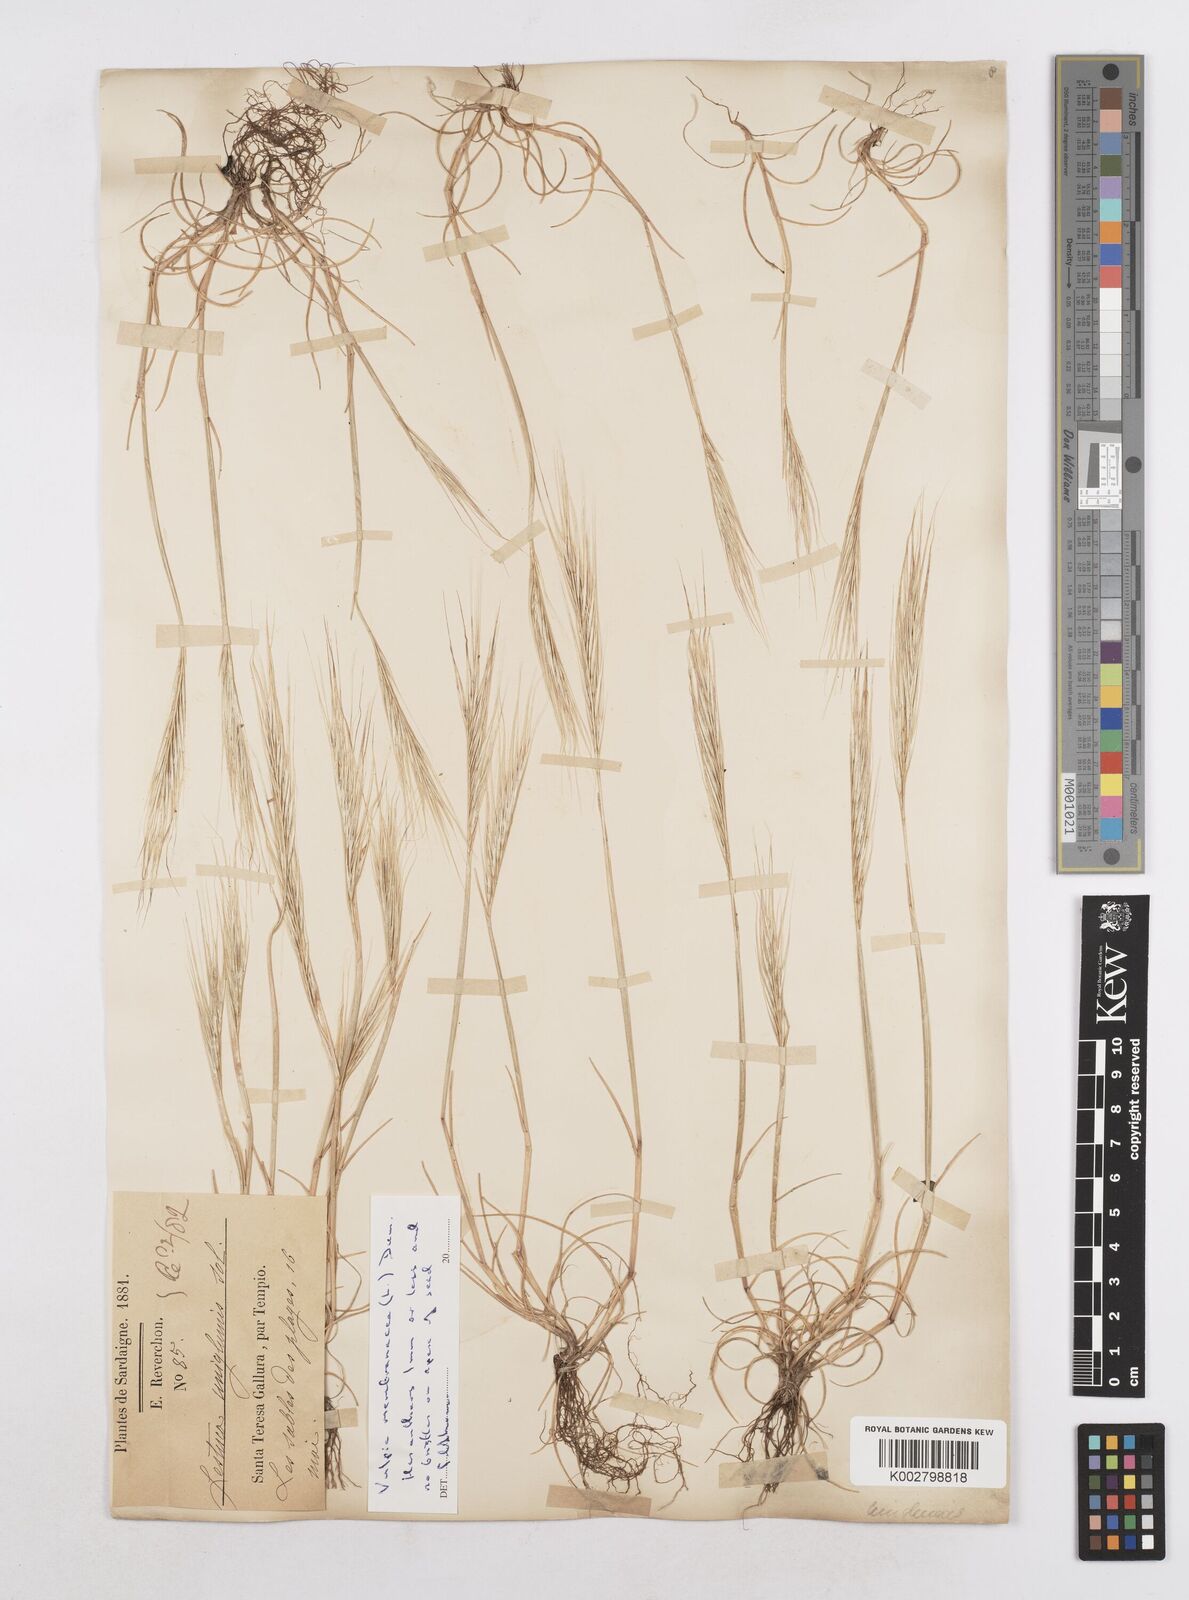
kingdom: Plantae
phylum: Tracheophyta
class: Liliopsida
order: Poales
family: Poaceae
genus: Festuca
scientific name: Festuca membranacea
